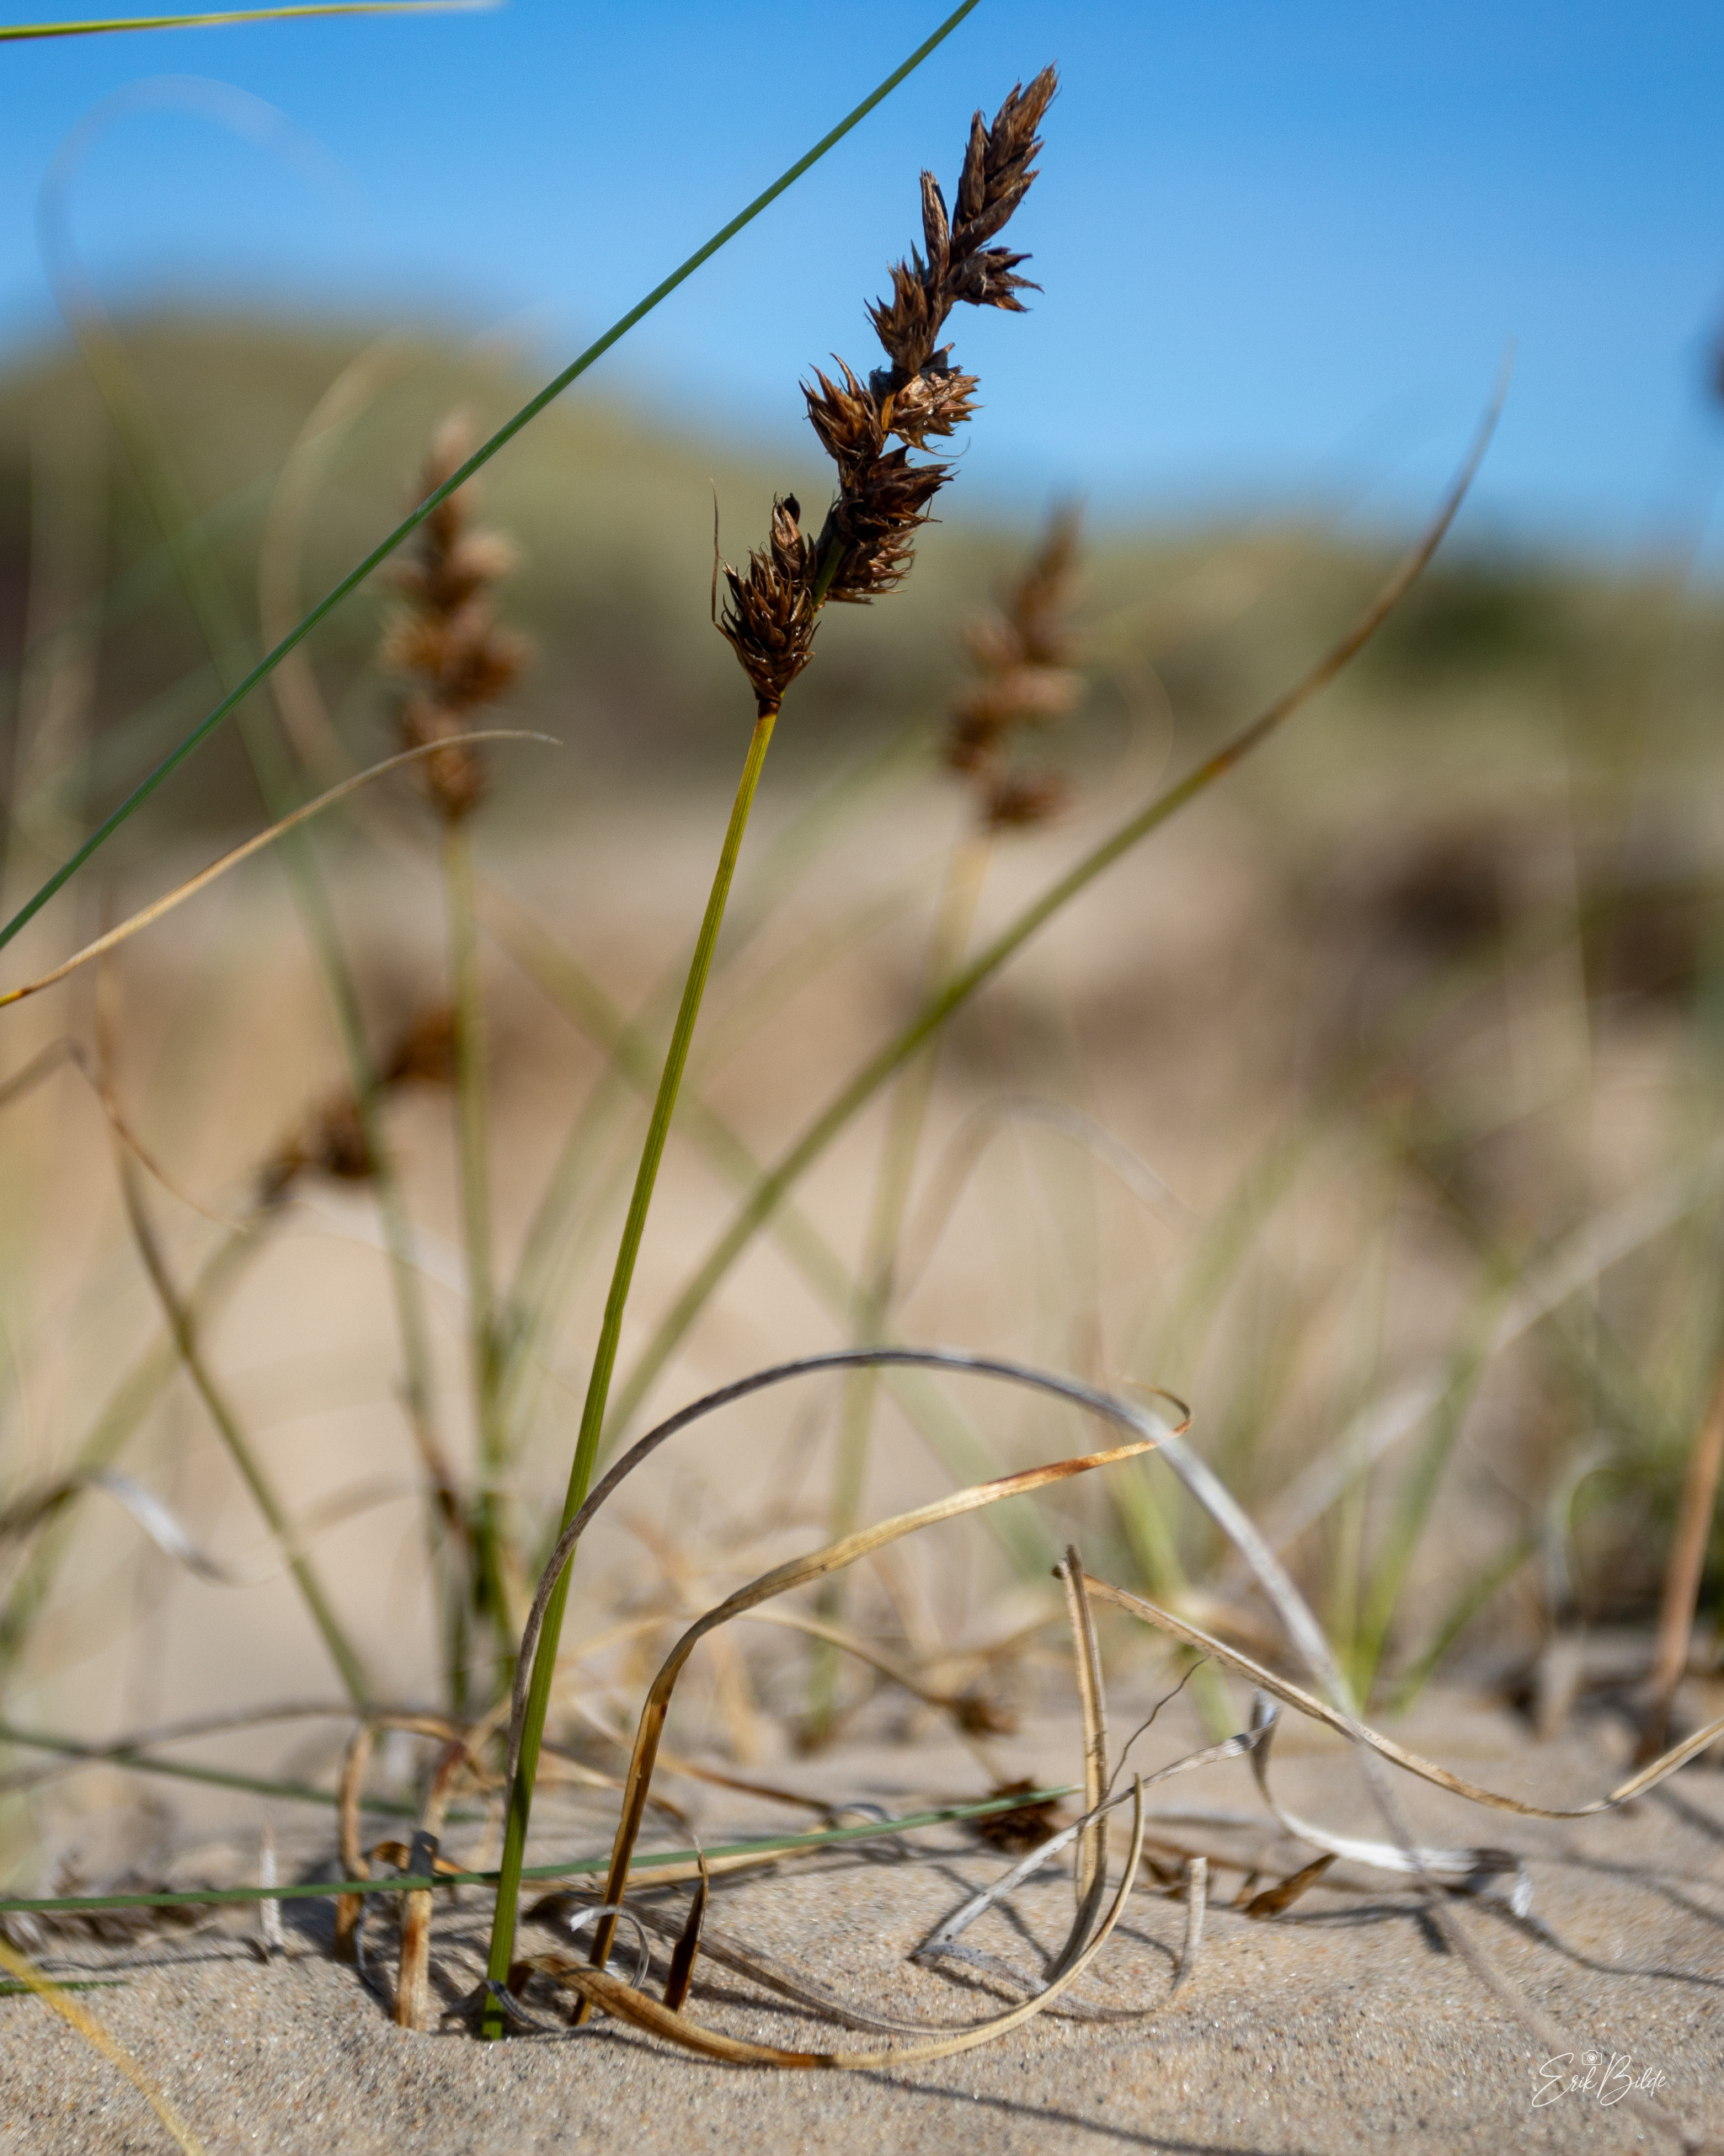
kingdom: Plantae
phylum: Tracheophyta
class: Liliopsida
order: Poales
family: Cyperaceae
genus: Carex
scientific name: Carex arenaria
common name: Sand-star
